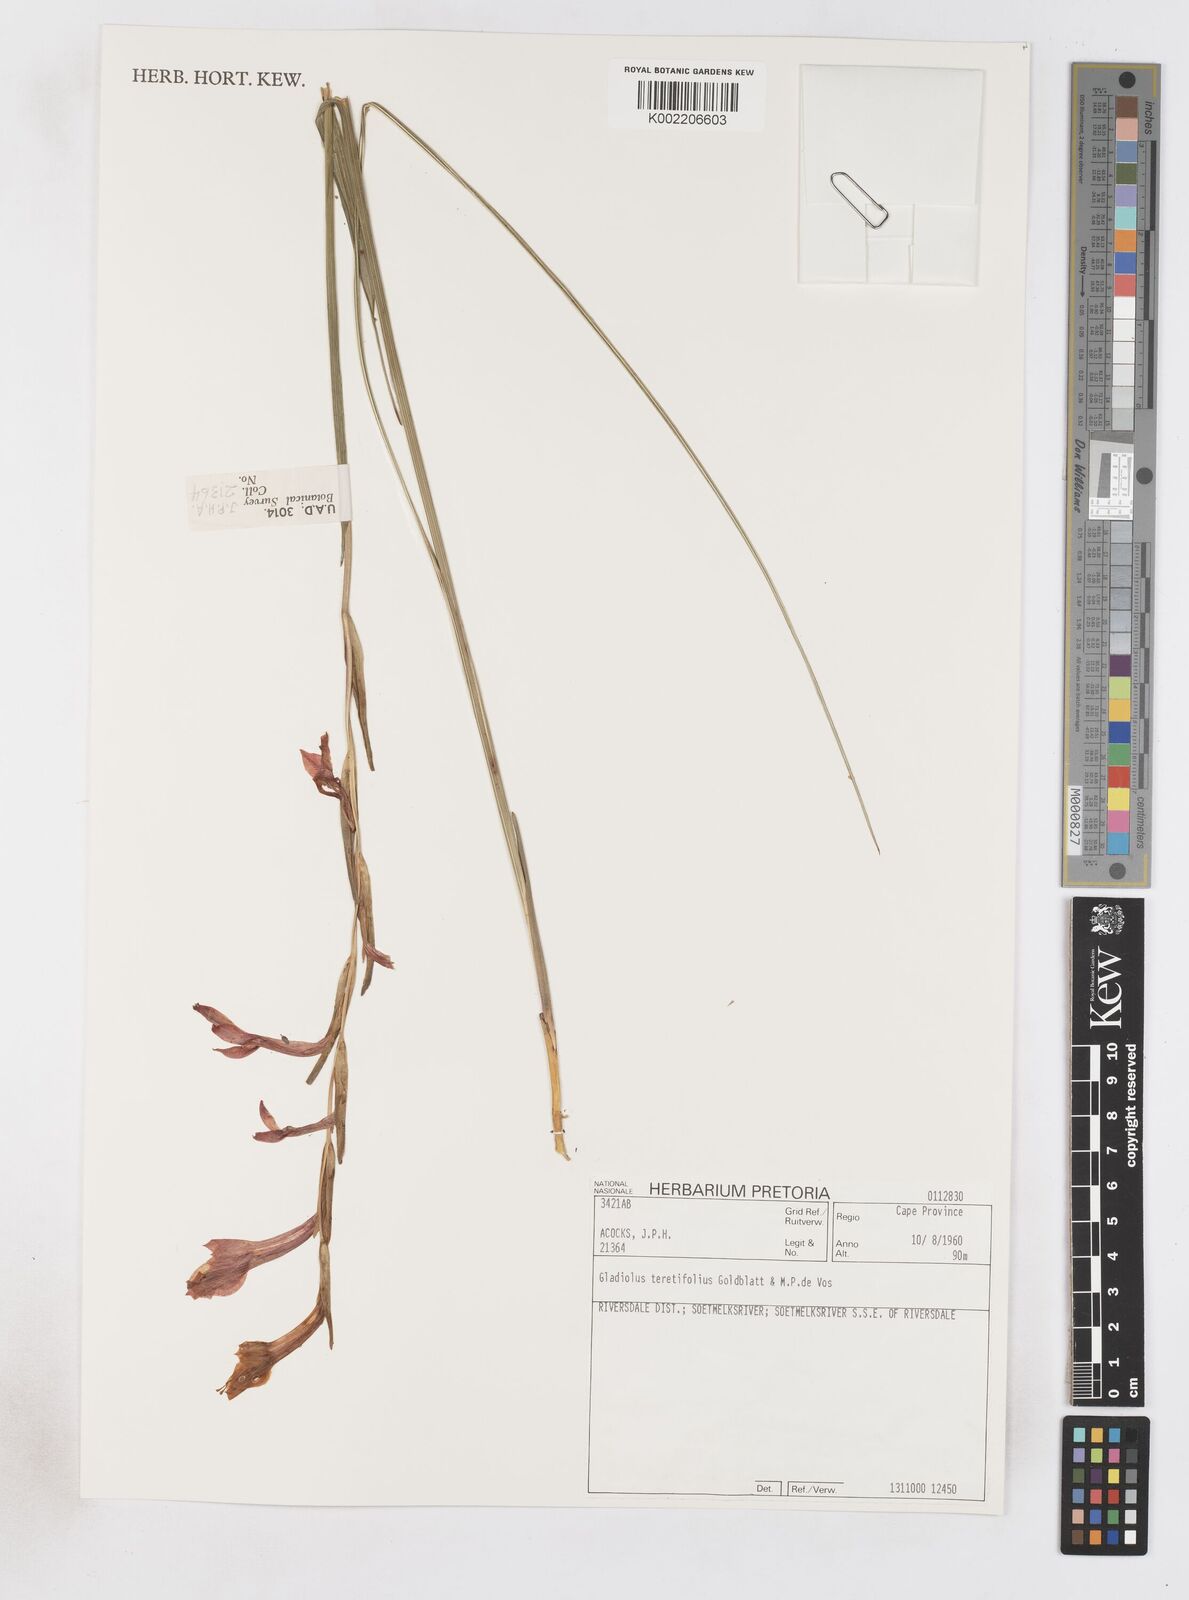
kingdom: Plantae
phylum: Tracheophyta
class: Liliopsida
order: Asparagales
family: Iridaceae
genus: Gladiolus
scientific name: Gladiolus teretifolius
